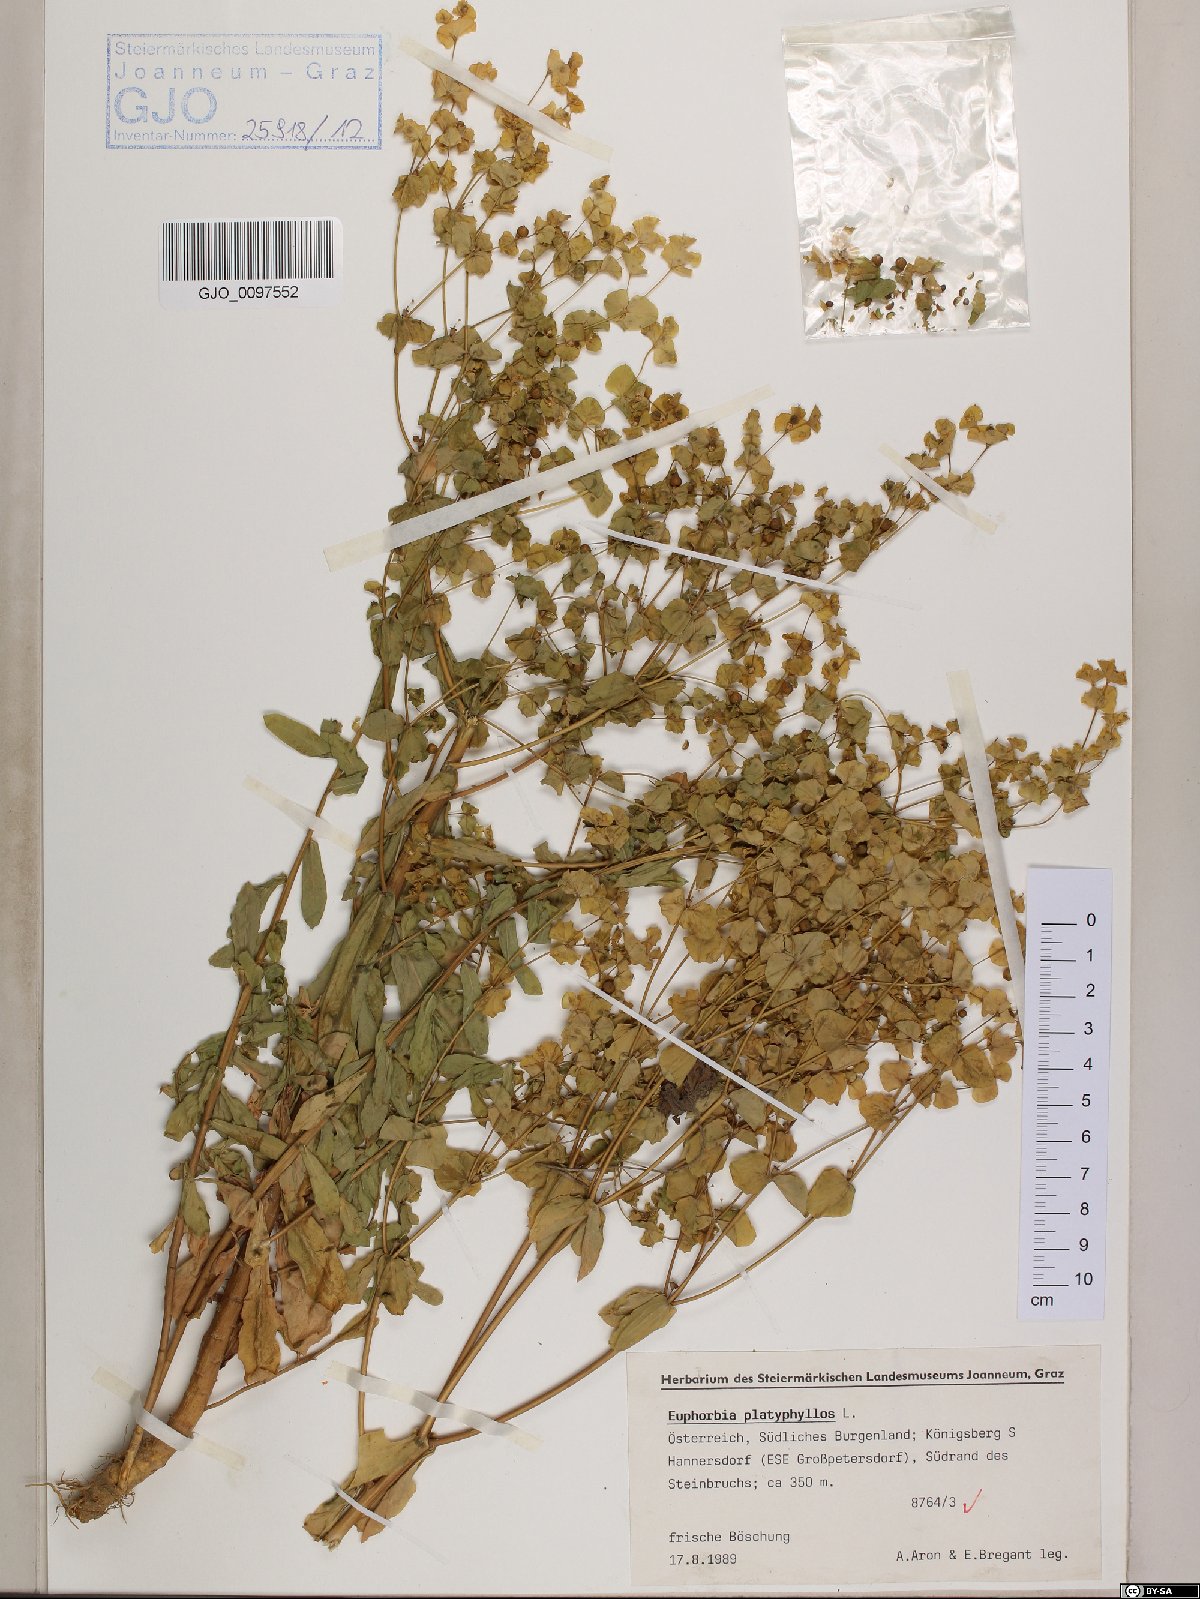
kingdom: Plantae
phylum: Tracheophyta
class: Magnoliopsida
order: Malpighiales
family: Euphorbiaceae
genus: Euphorbia
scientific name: Euphorbia platyphyllos
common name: Broad-leaved spurge
